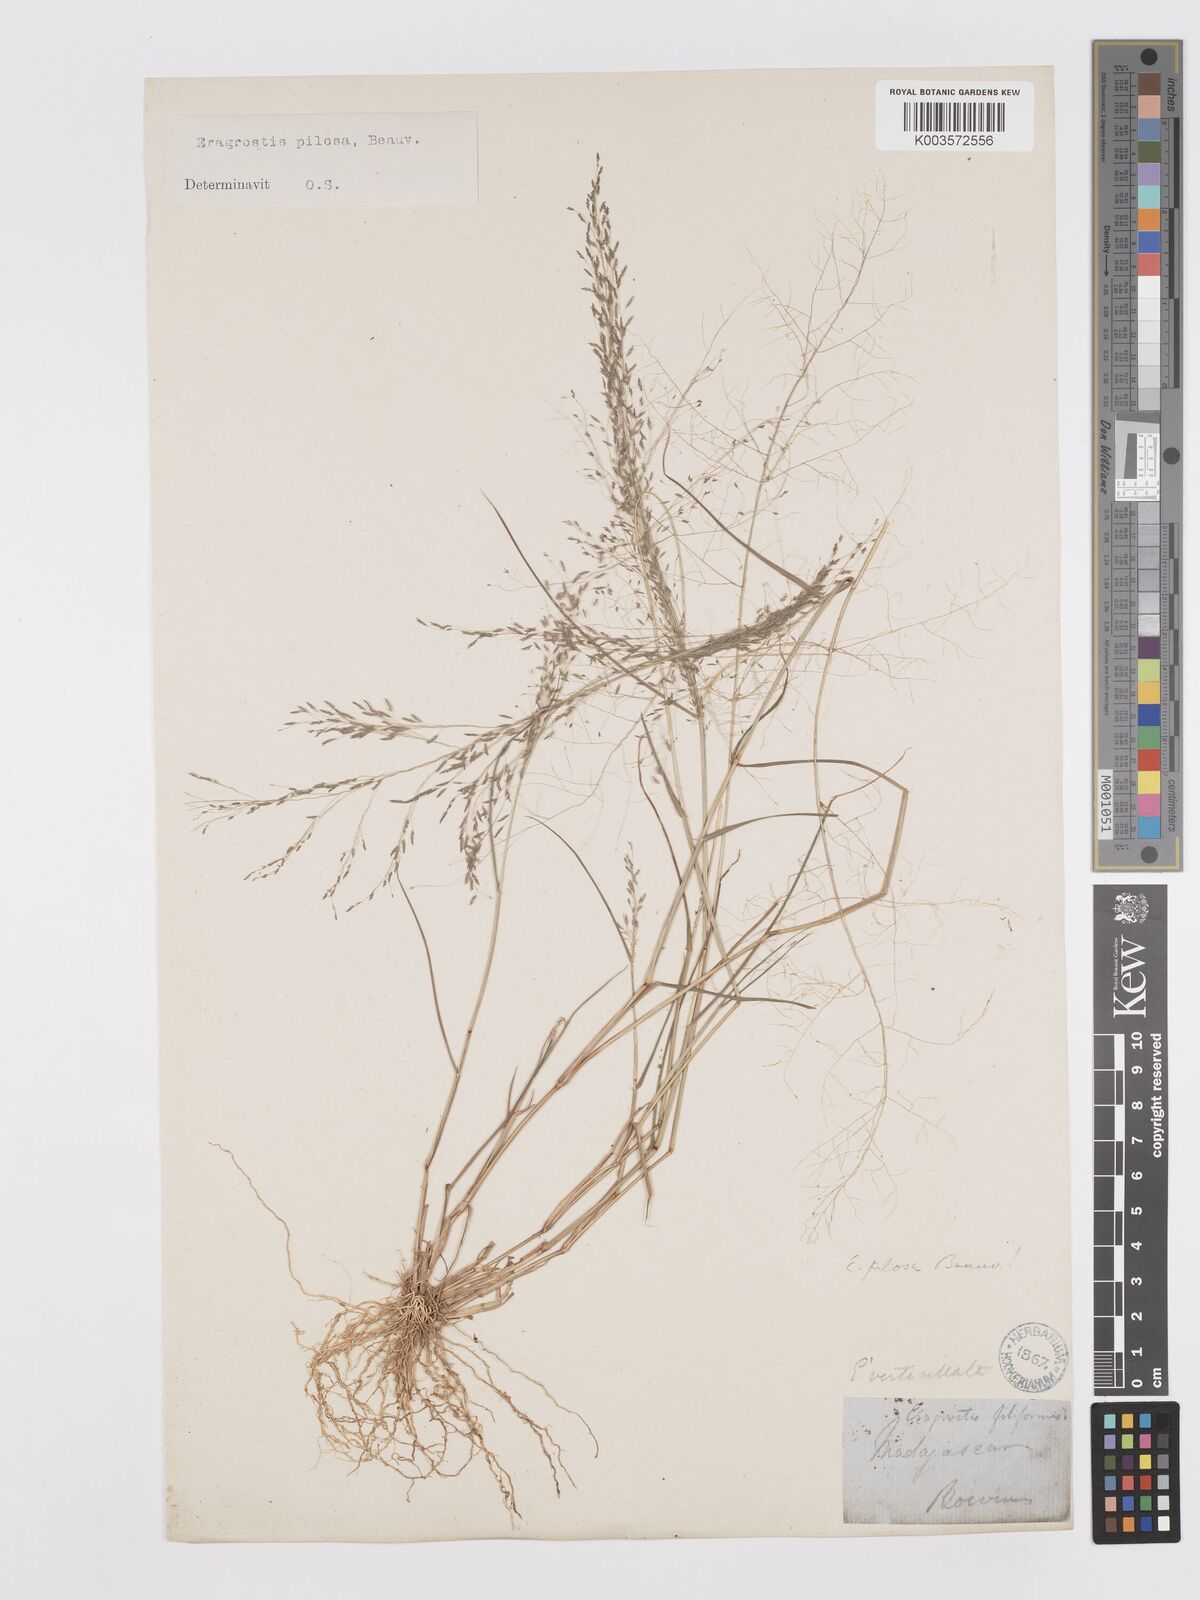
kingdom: Plantae
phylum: Tracheophyta
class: Liliopsida
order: Poales
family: Poaceae
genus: Eragrostis
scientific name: Eragrostis pilosa
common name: Indian lovegrass
